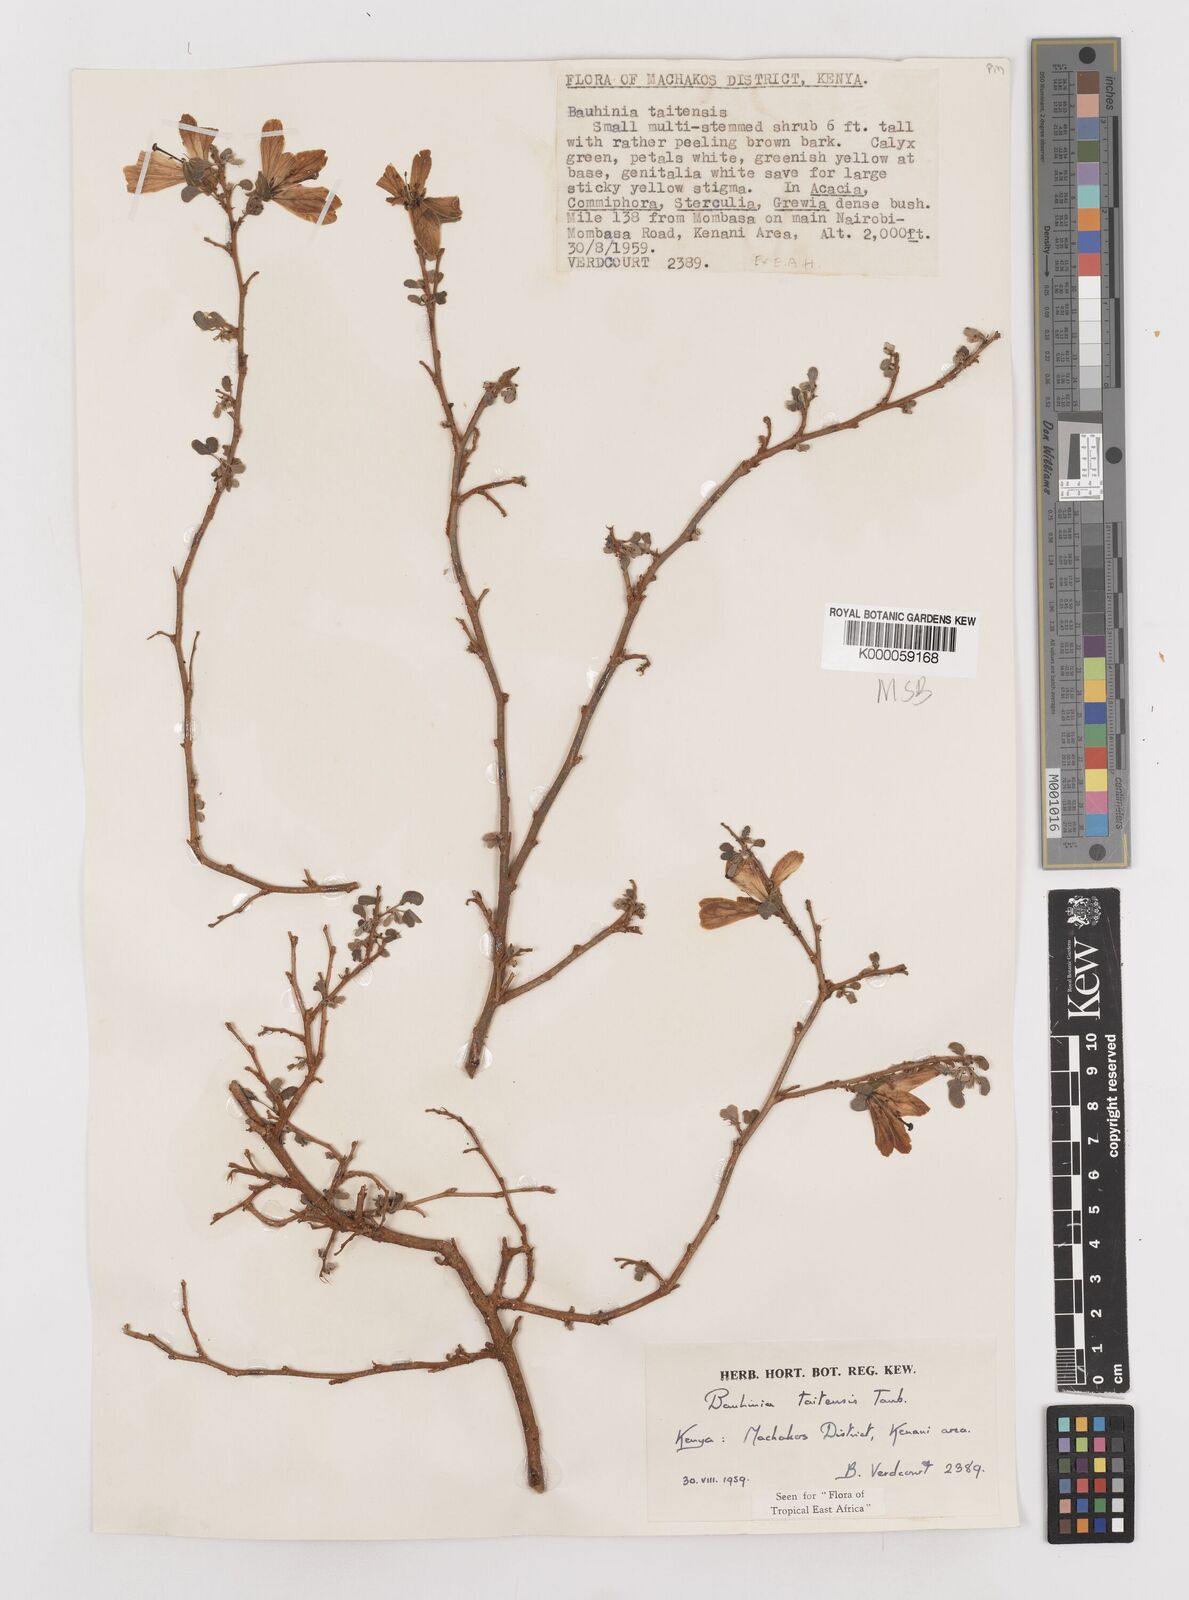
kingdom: Plantae
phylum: Tracheophyta
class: Magnoliopsida
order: Fabales
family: Fabaceae
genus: Bauhinia
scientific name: Bauhinia taitensis
